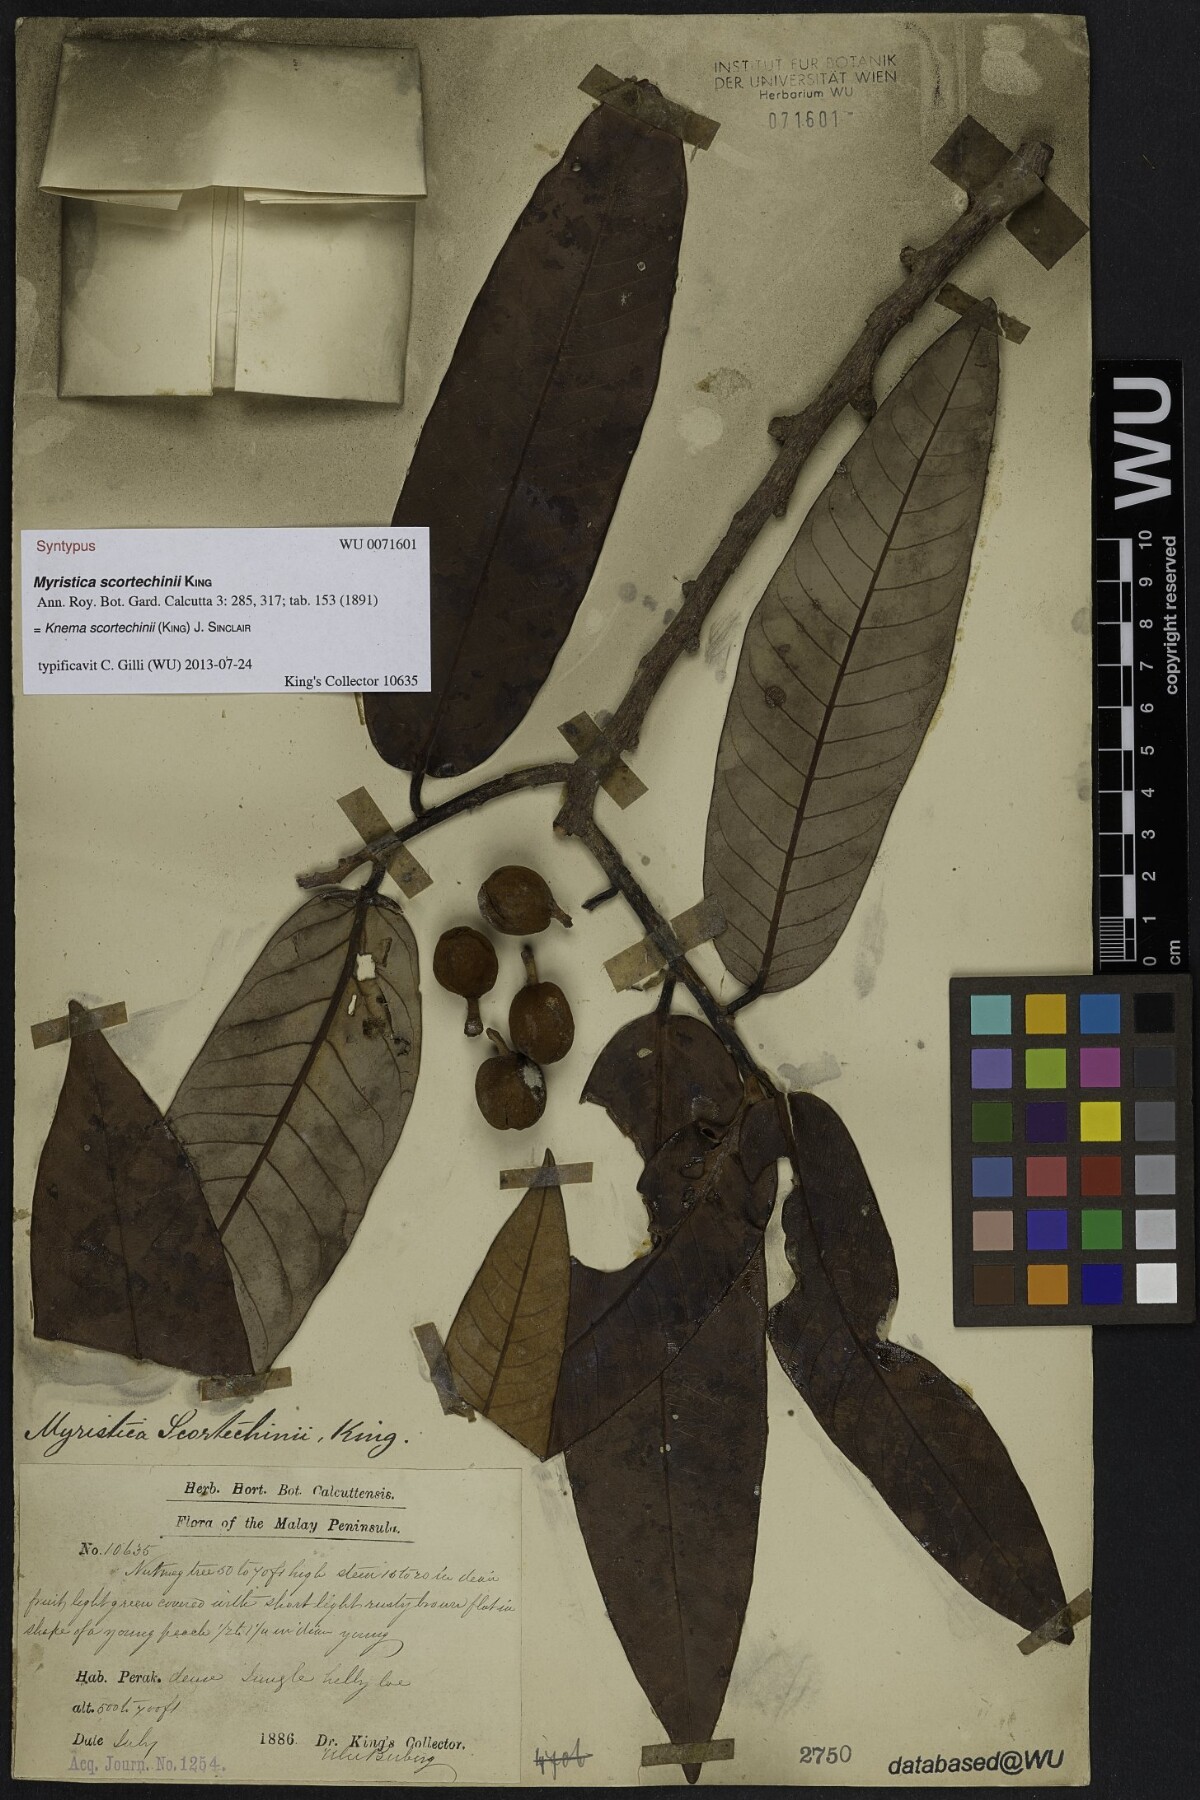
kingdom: Plantae
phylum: Tracheophyta
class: Magnoliopsida
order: Magnoliales
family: Myristicaceae
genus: Knema
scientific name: Knema scortechinii
